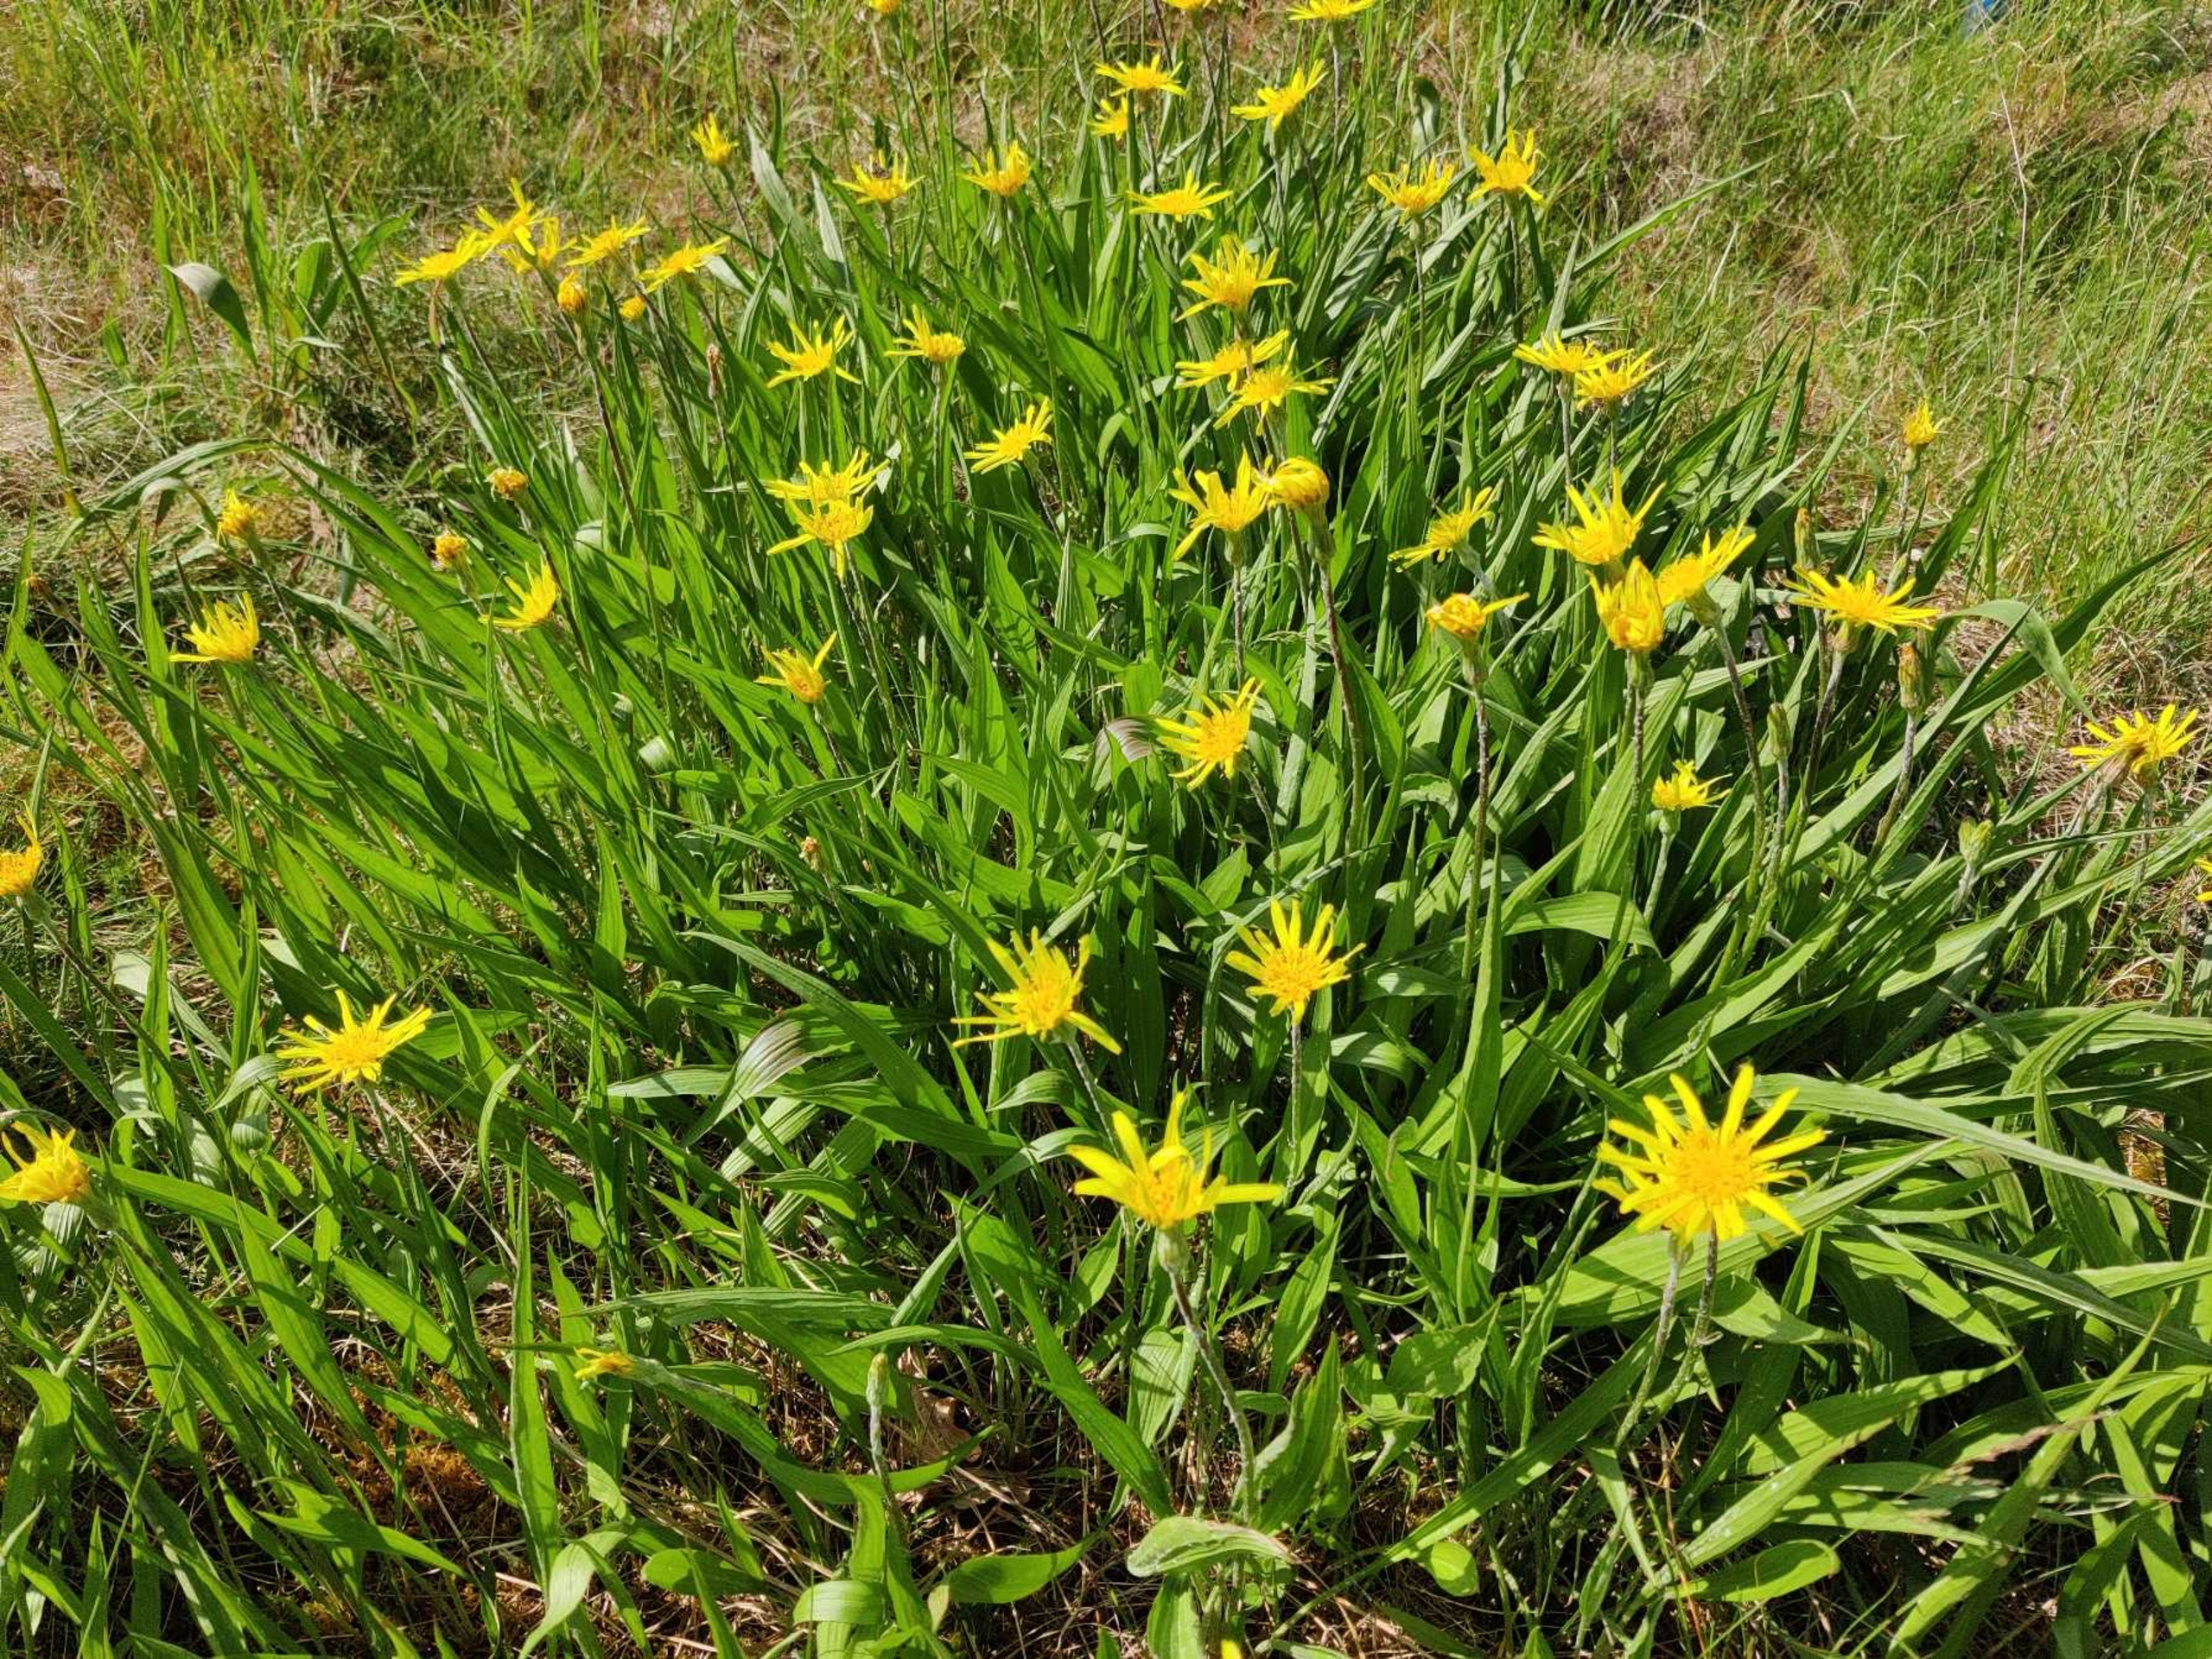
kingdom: Plantae
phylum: Tracheophyta
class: Magnoliopsida
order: Asterales
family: Asteraceae
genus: Scorzonera
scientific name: Scorzonera humilis
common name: Lav skorsoner
